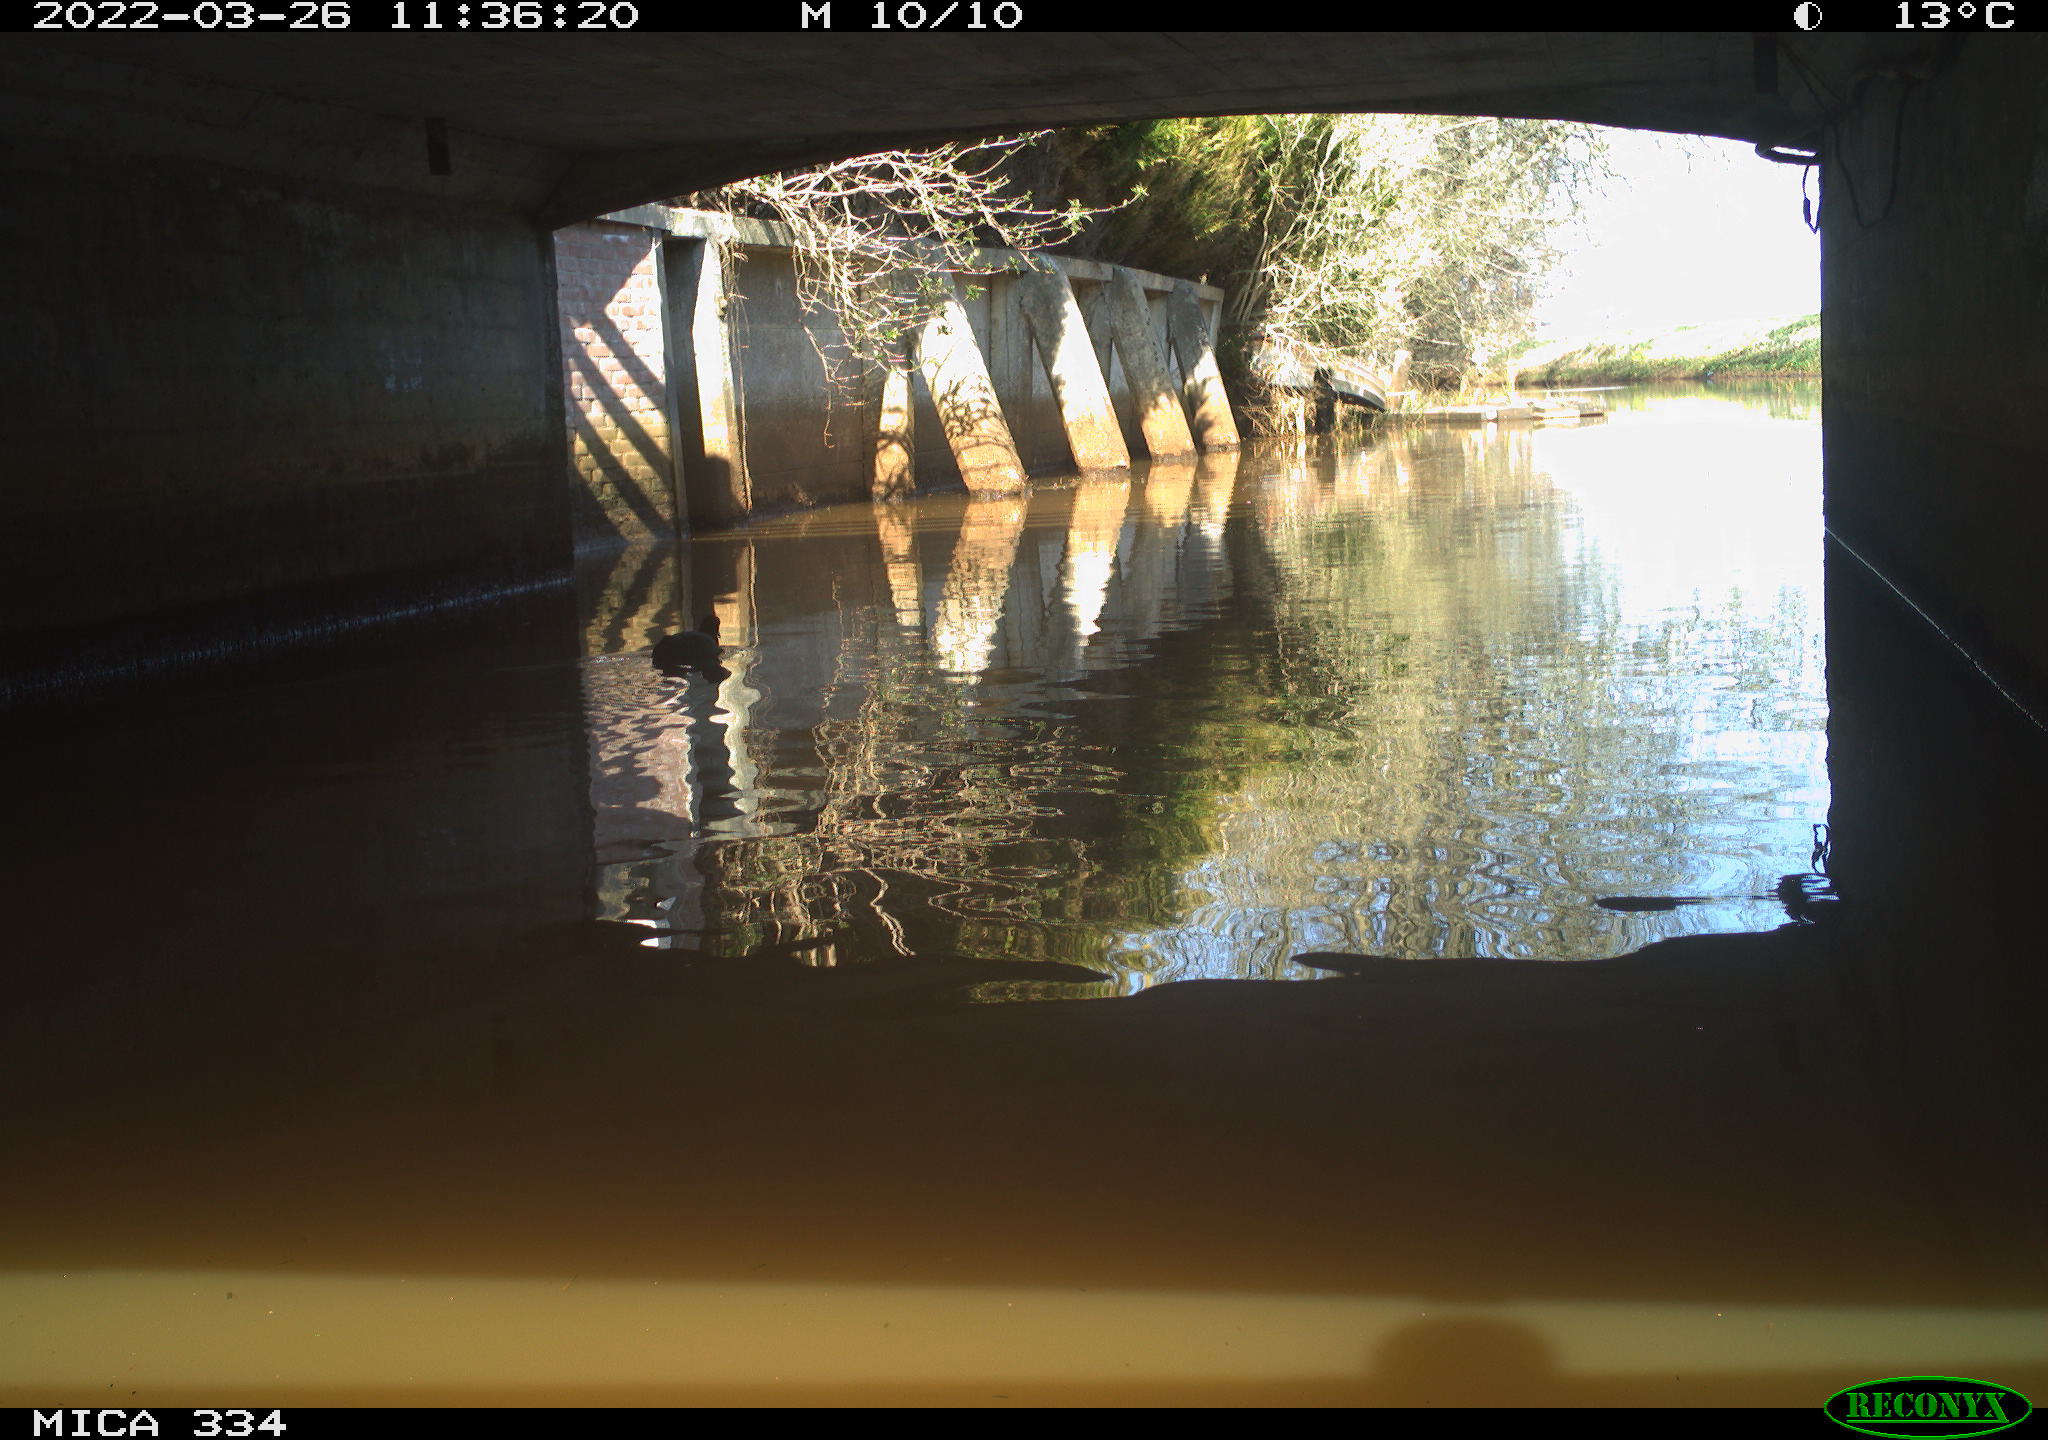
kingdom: Animalia
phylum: Chordata
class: Aves
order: Gruiformes
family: Rallidae
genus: Fulica
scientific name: Fulica atra
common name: Eurasian coot
